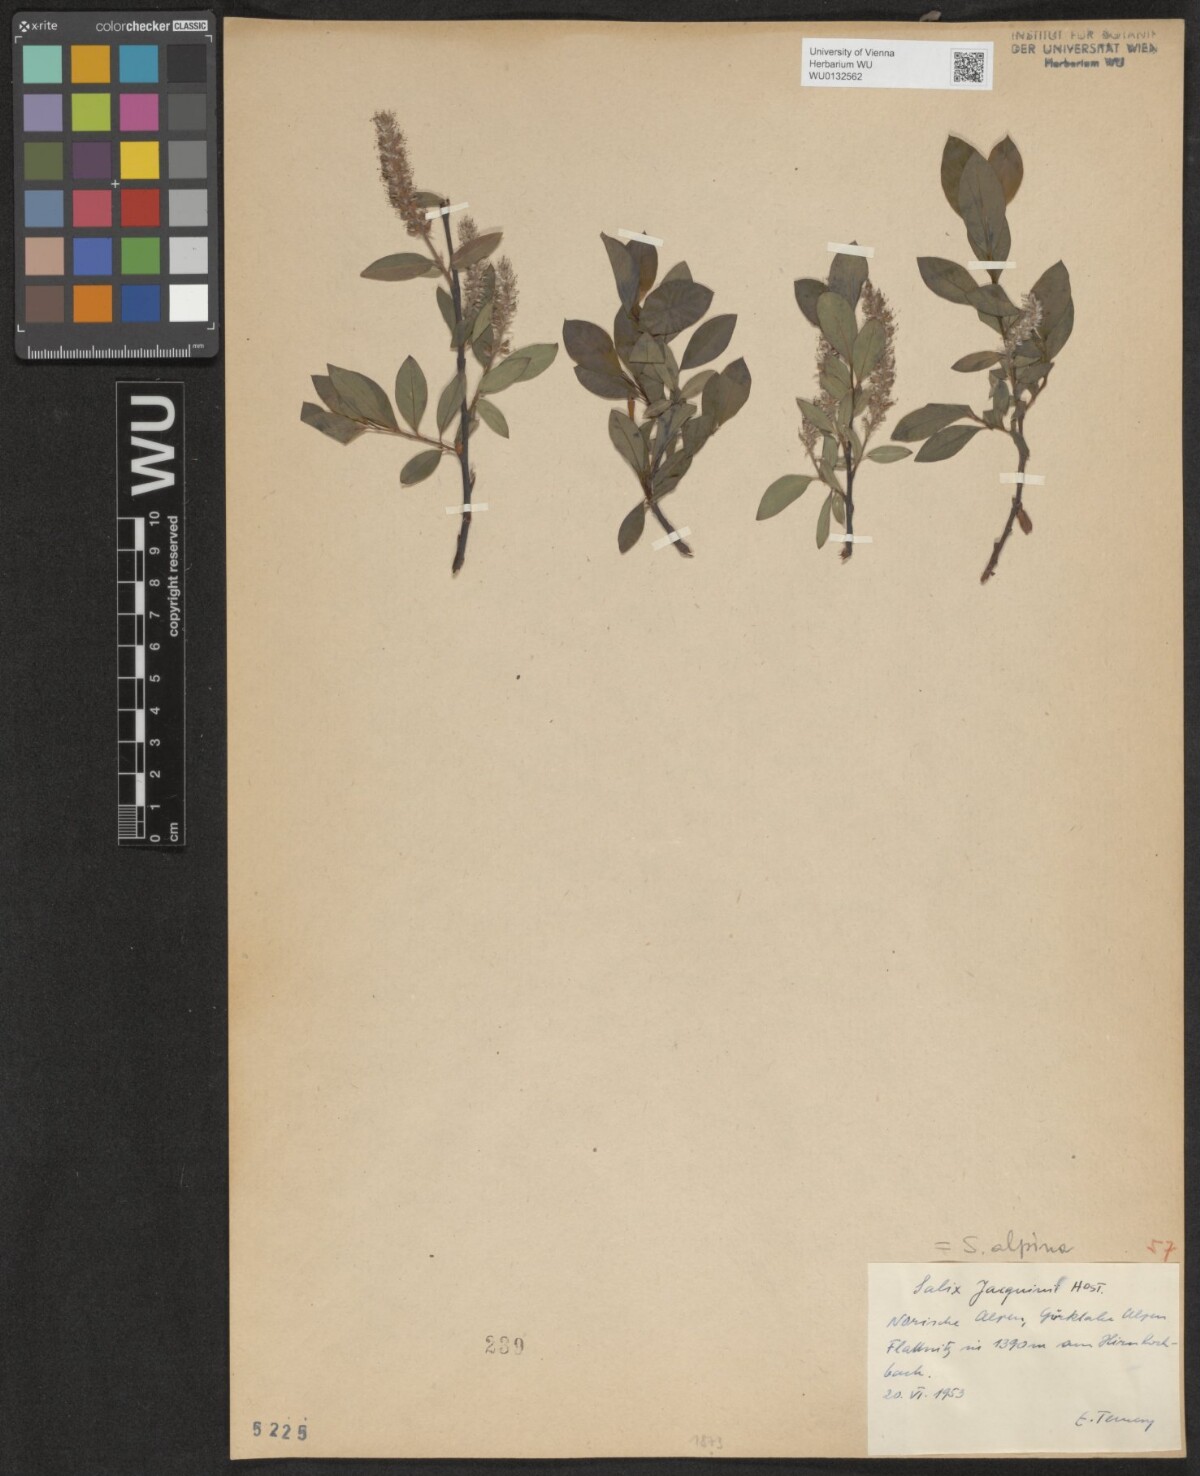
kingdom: Plantae
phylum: Tracheophyta
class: Magnoliopsida
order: Malpighiales
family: Salicaceae
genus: Salix
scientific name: Salix alpina
